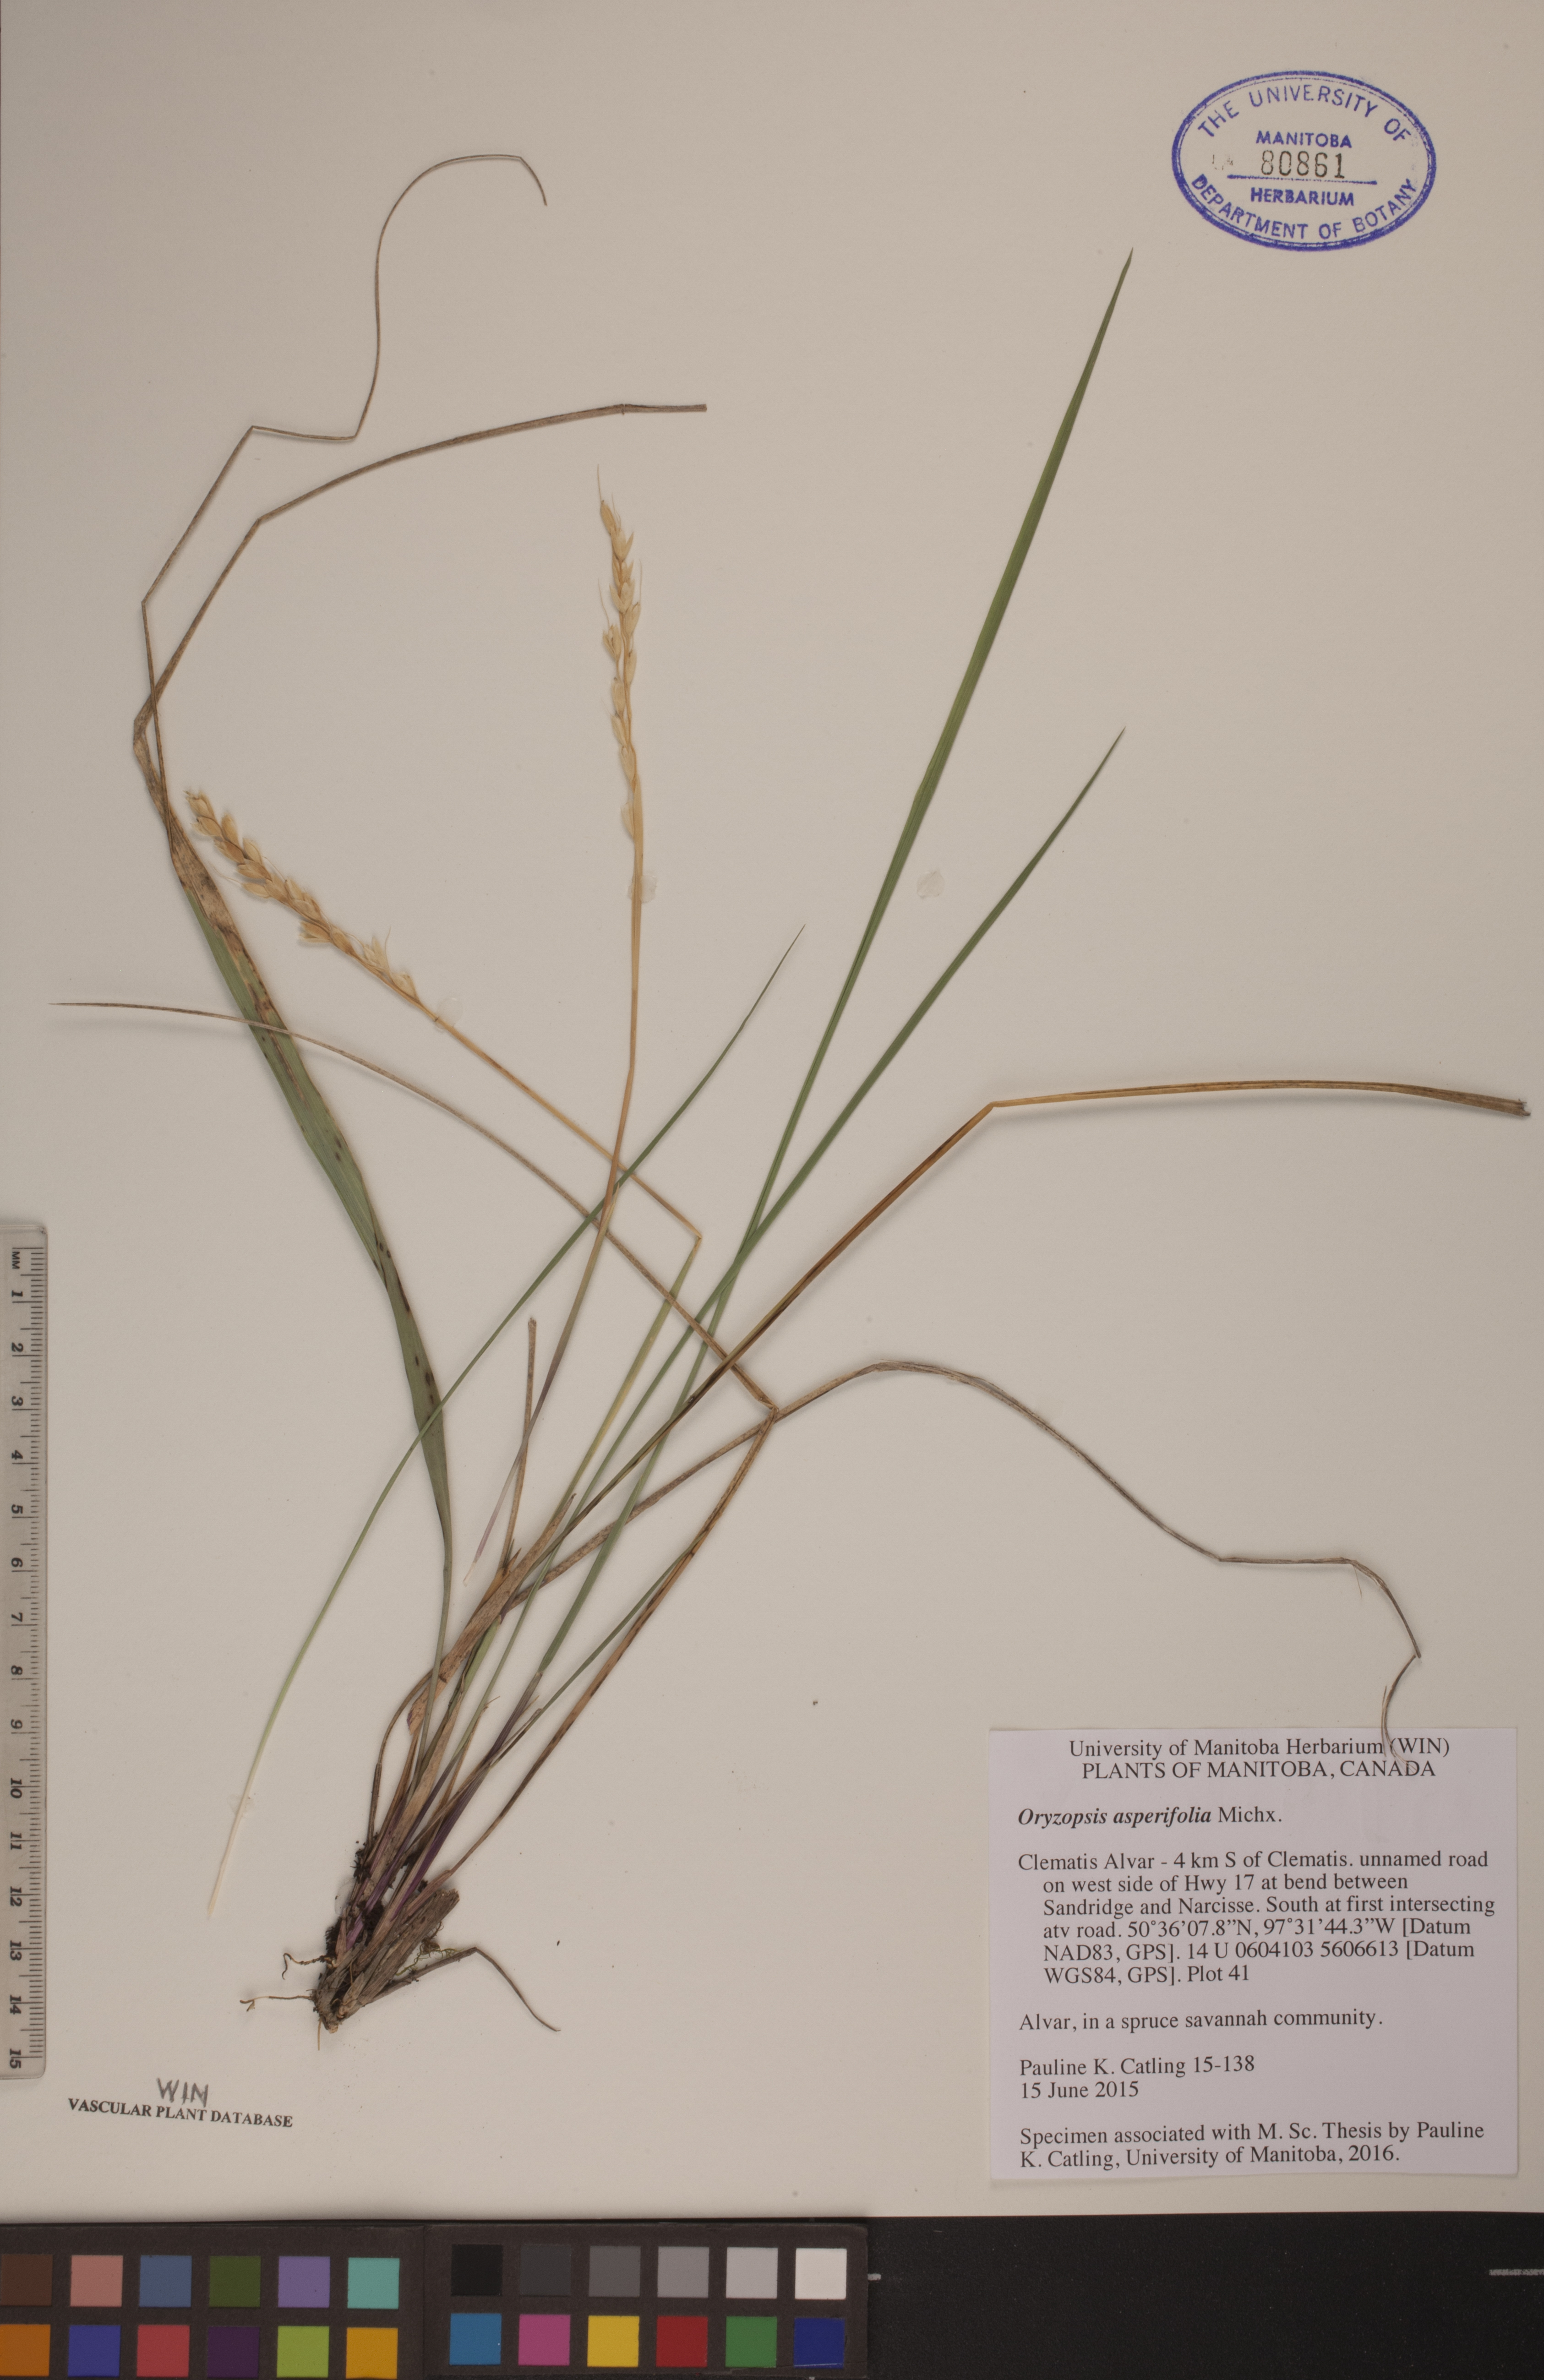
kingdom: Plantae
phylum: Tracheophyta
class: Liliopsida
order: Poales
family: Poaceae
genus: Oryzopsis
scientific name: Oryzopsis asperifolia
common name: Rough-leaved mountain rice
